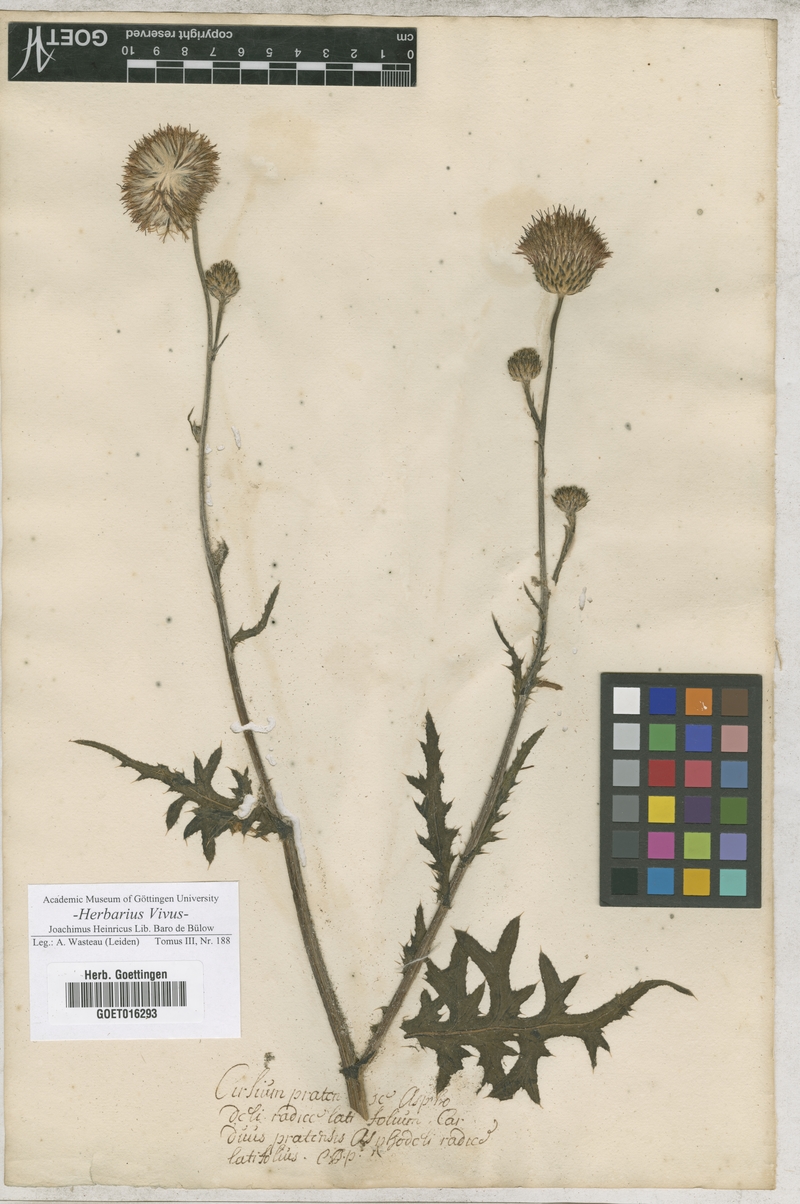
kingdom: Plantae
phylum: Tracheophyta
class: Magnoliopsida
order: Asterales
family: Asteraceae
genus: Cirsium
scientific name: Cirsium tuberosum
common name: Tuberous thistle
